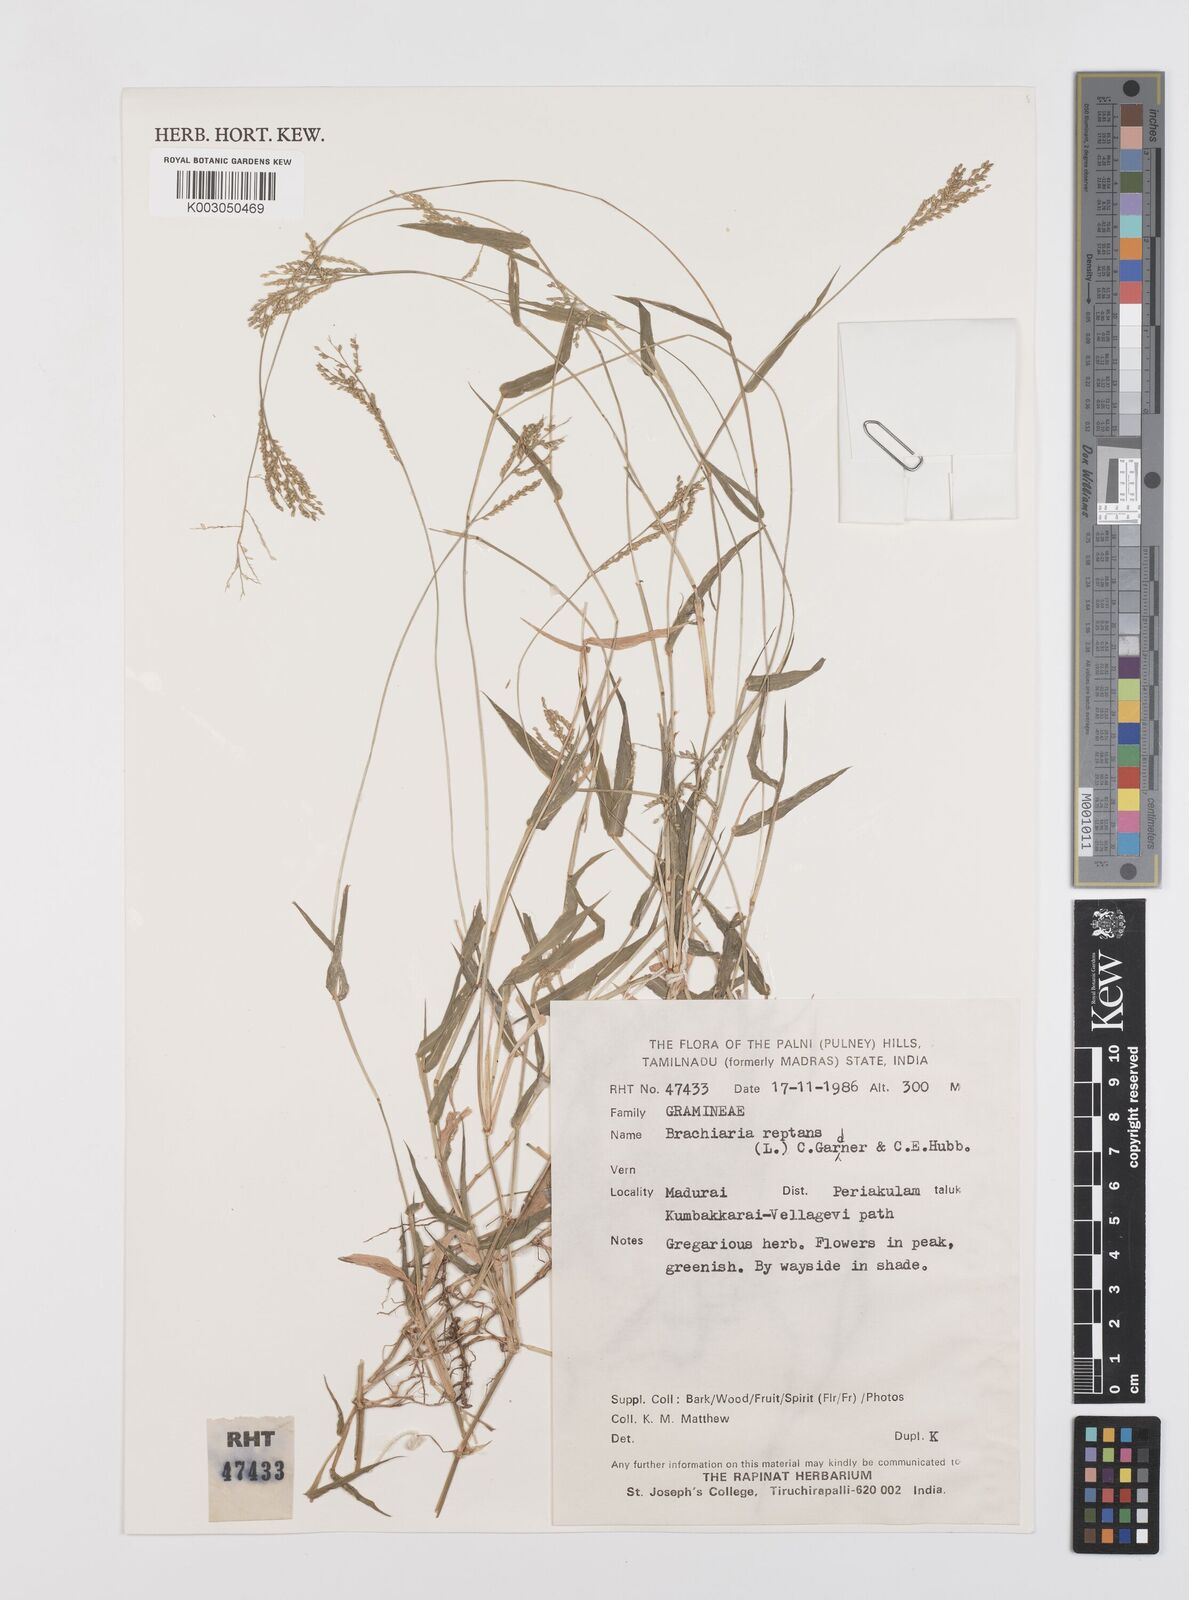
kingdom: Plantae
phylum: Tracheophyta
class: Liliopsida
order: Poales
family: Poaceae
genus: Urochloa
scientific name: Urochloa reptans
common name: Sprawling signalgrass
